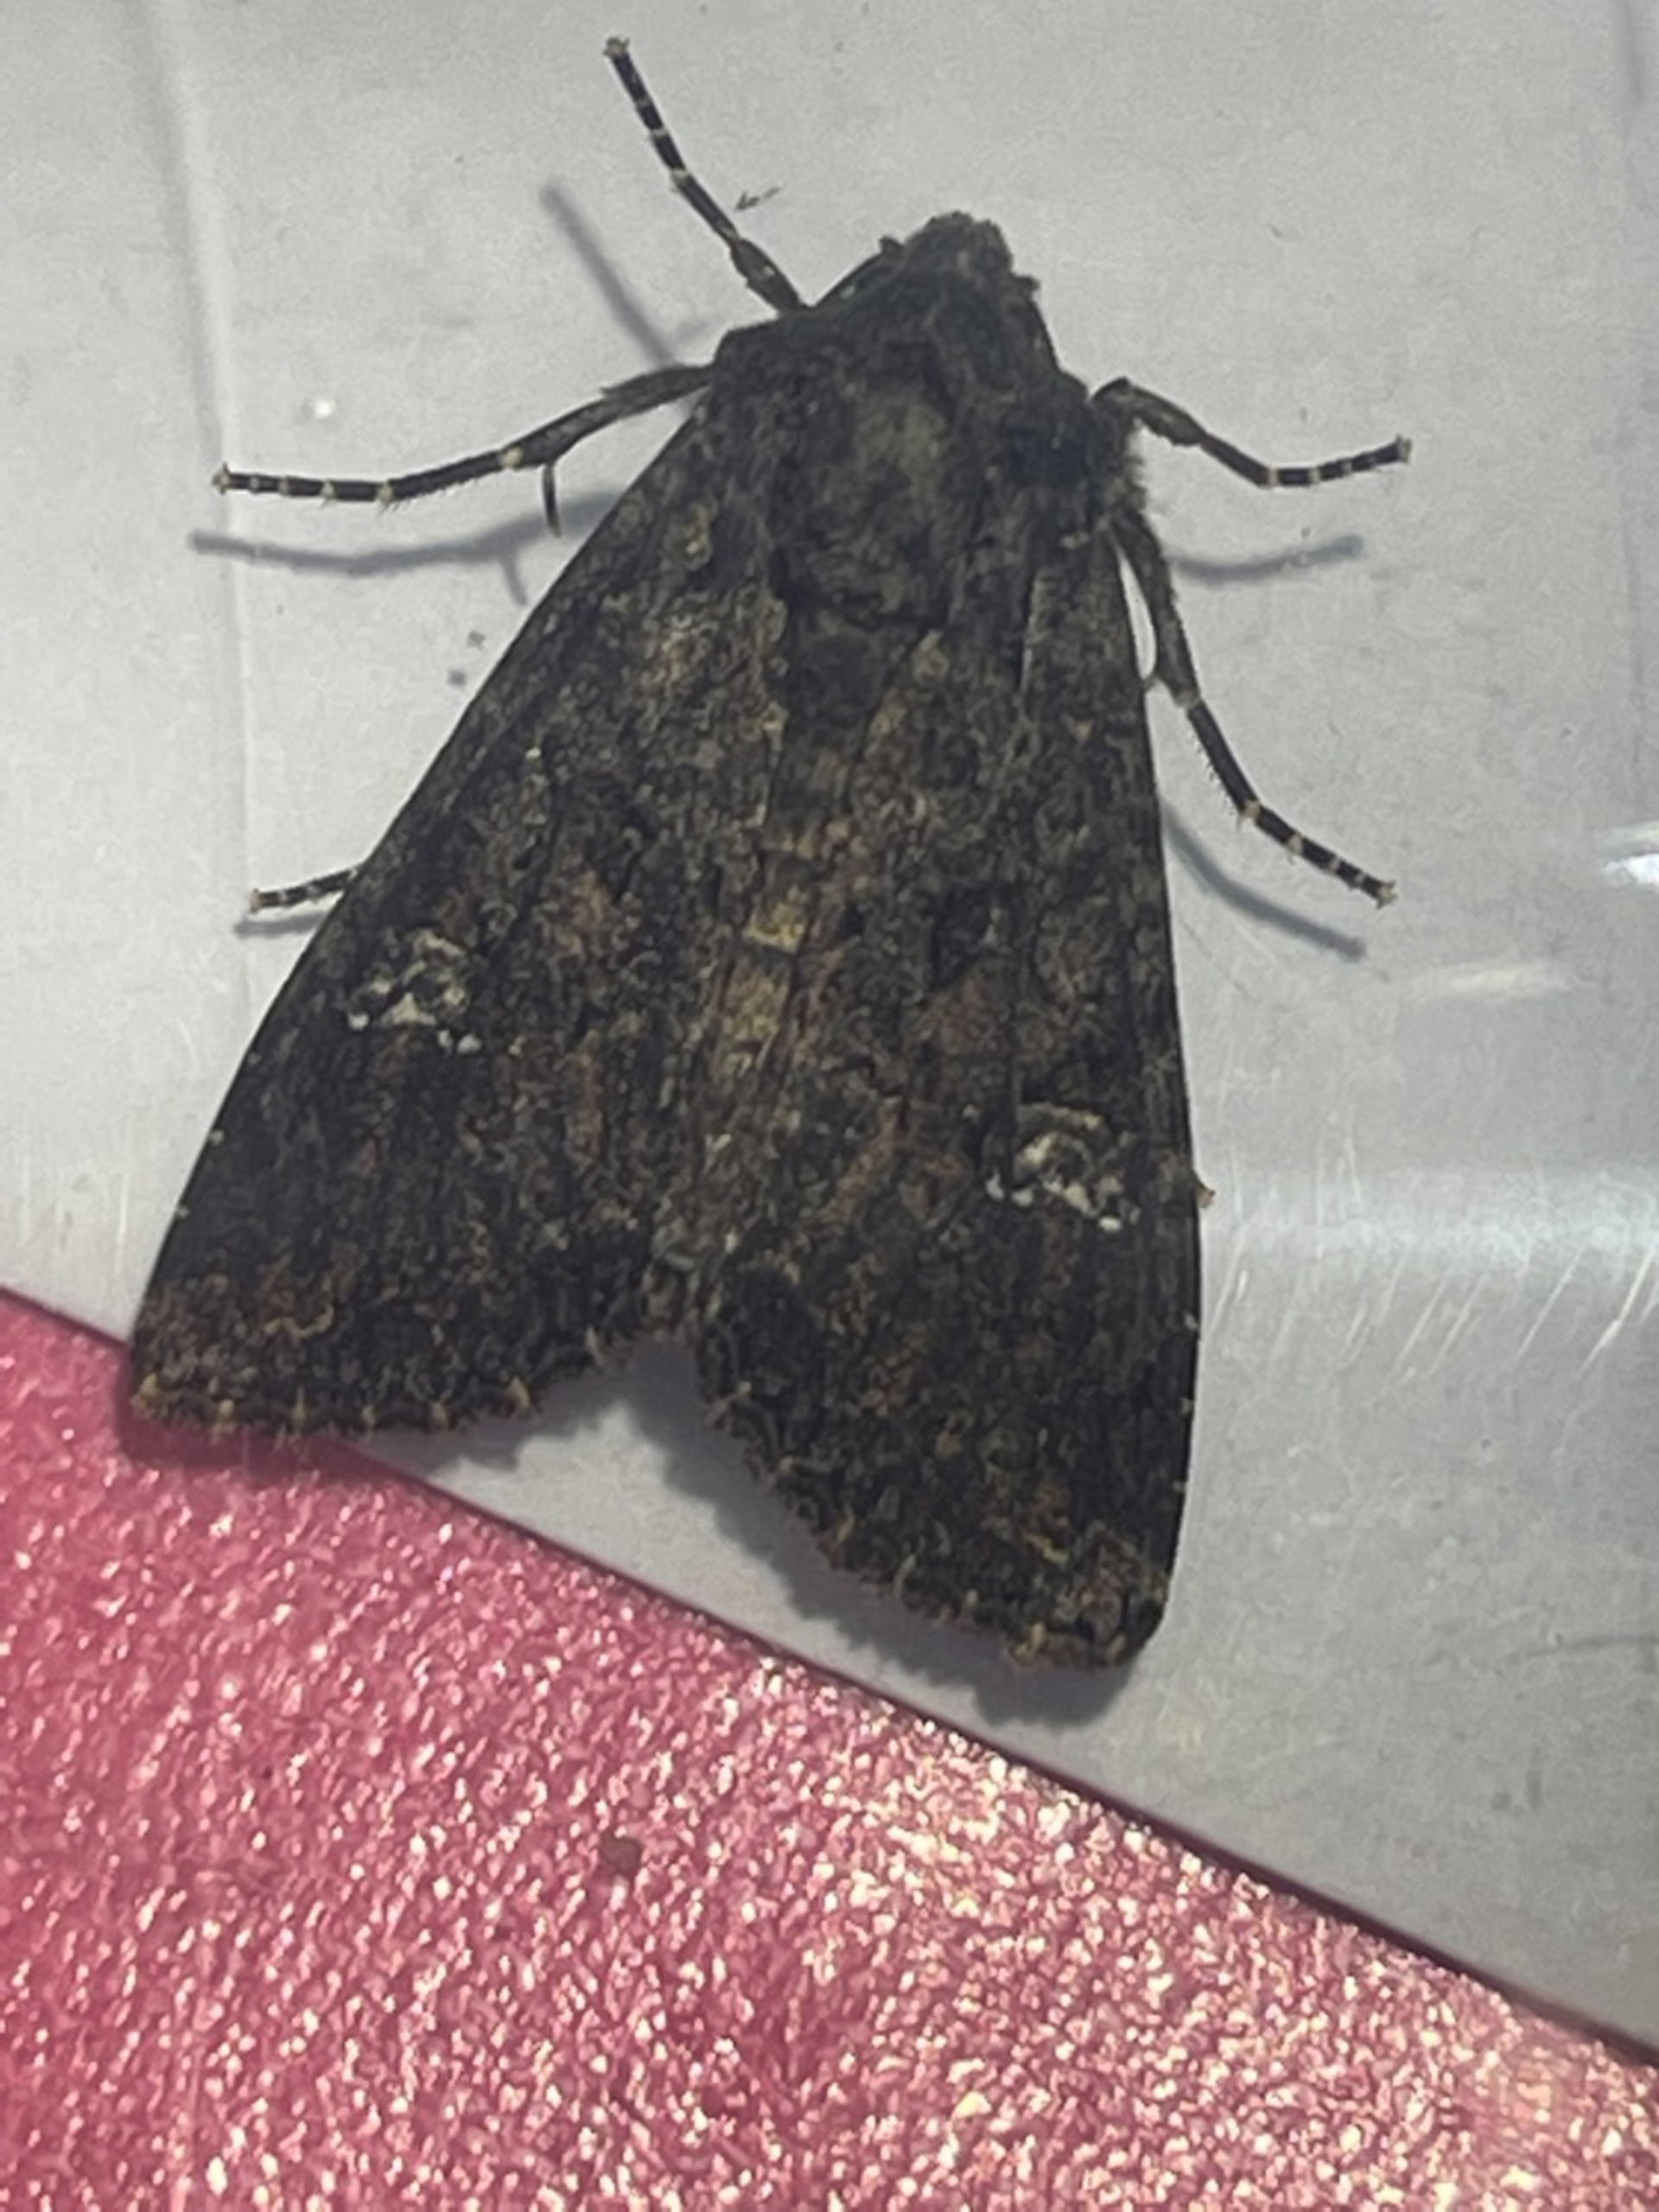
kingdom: Animalia
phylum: Arthropoda
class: Insecta
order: Lepidoptera
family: Noctuidae
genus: Mamestra
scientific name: Mamestra brassicae
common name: Kålugle
